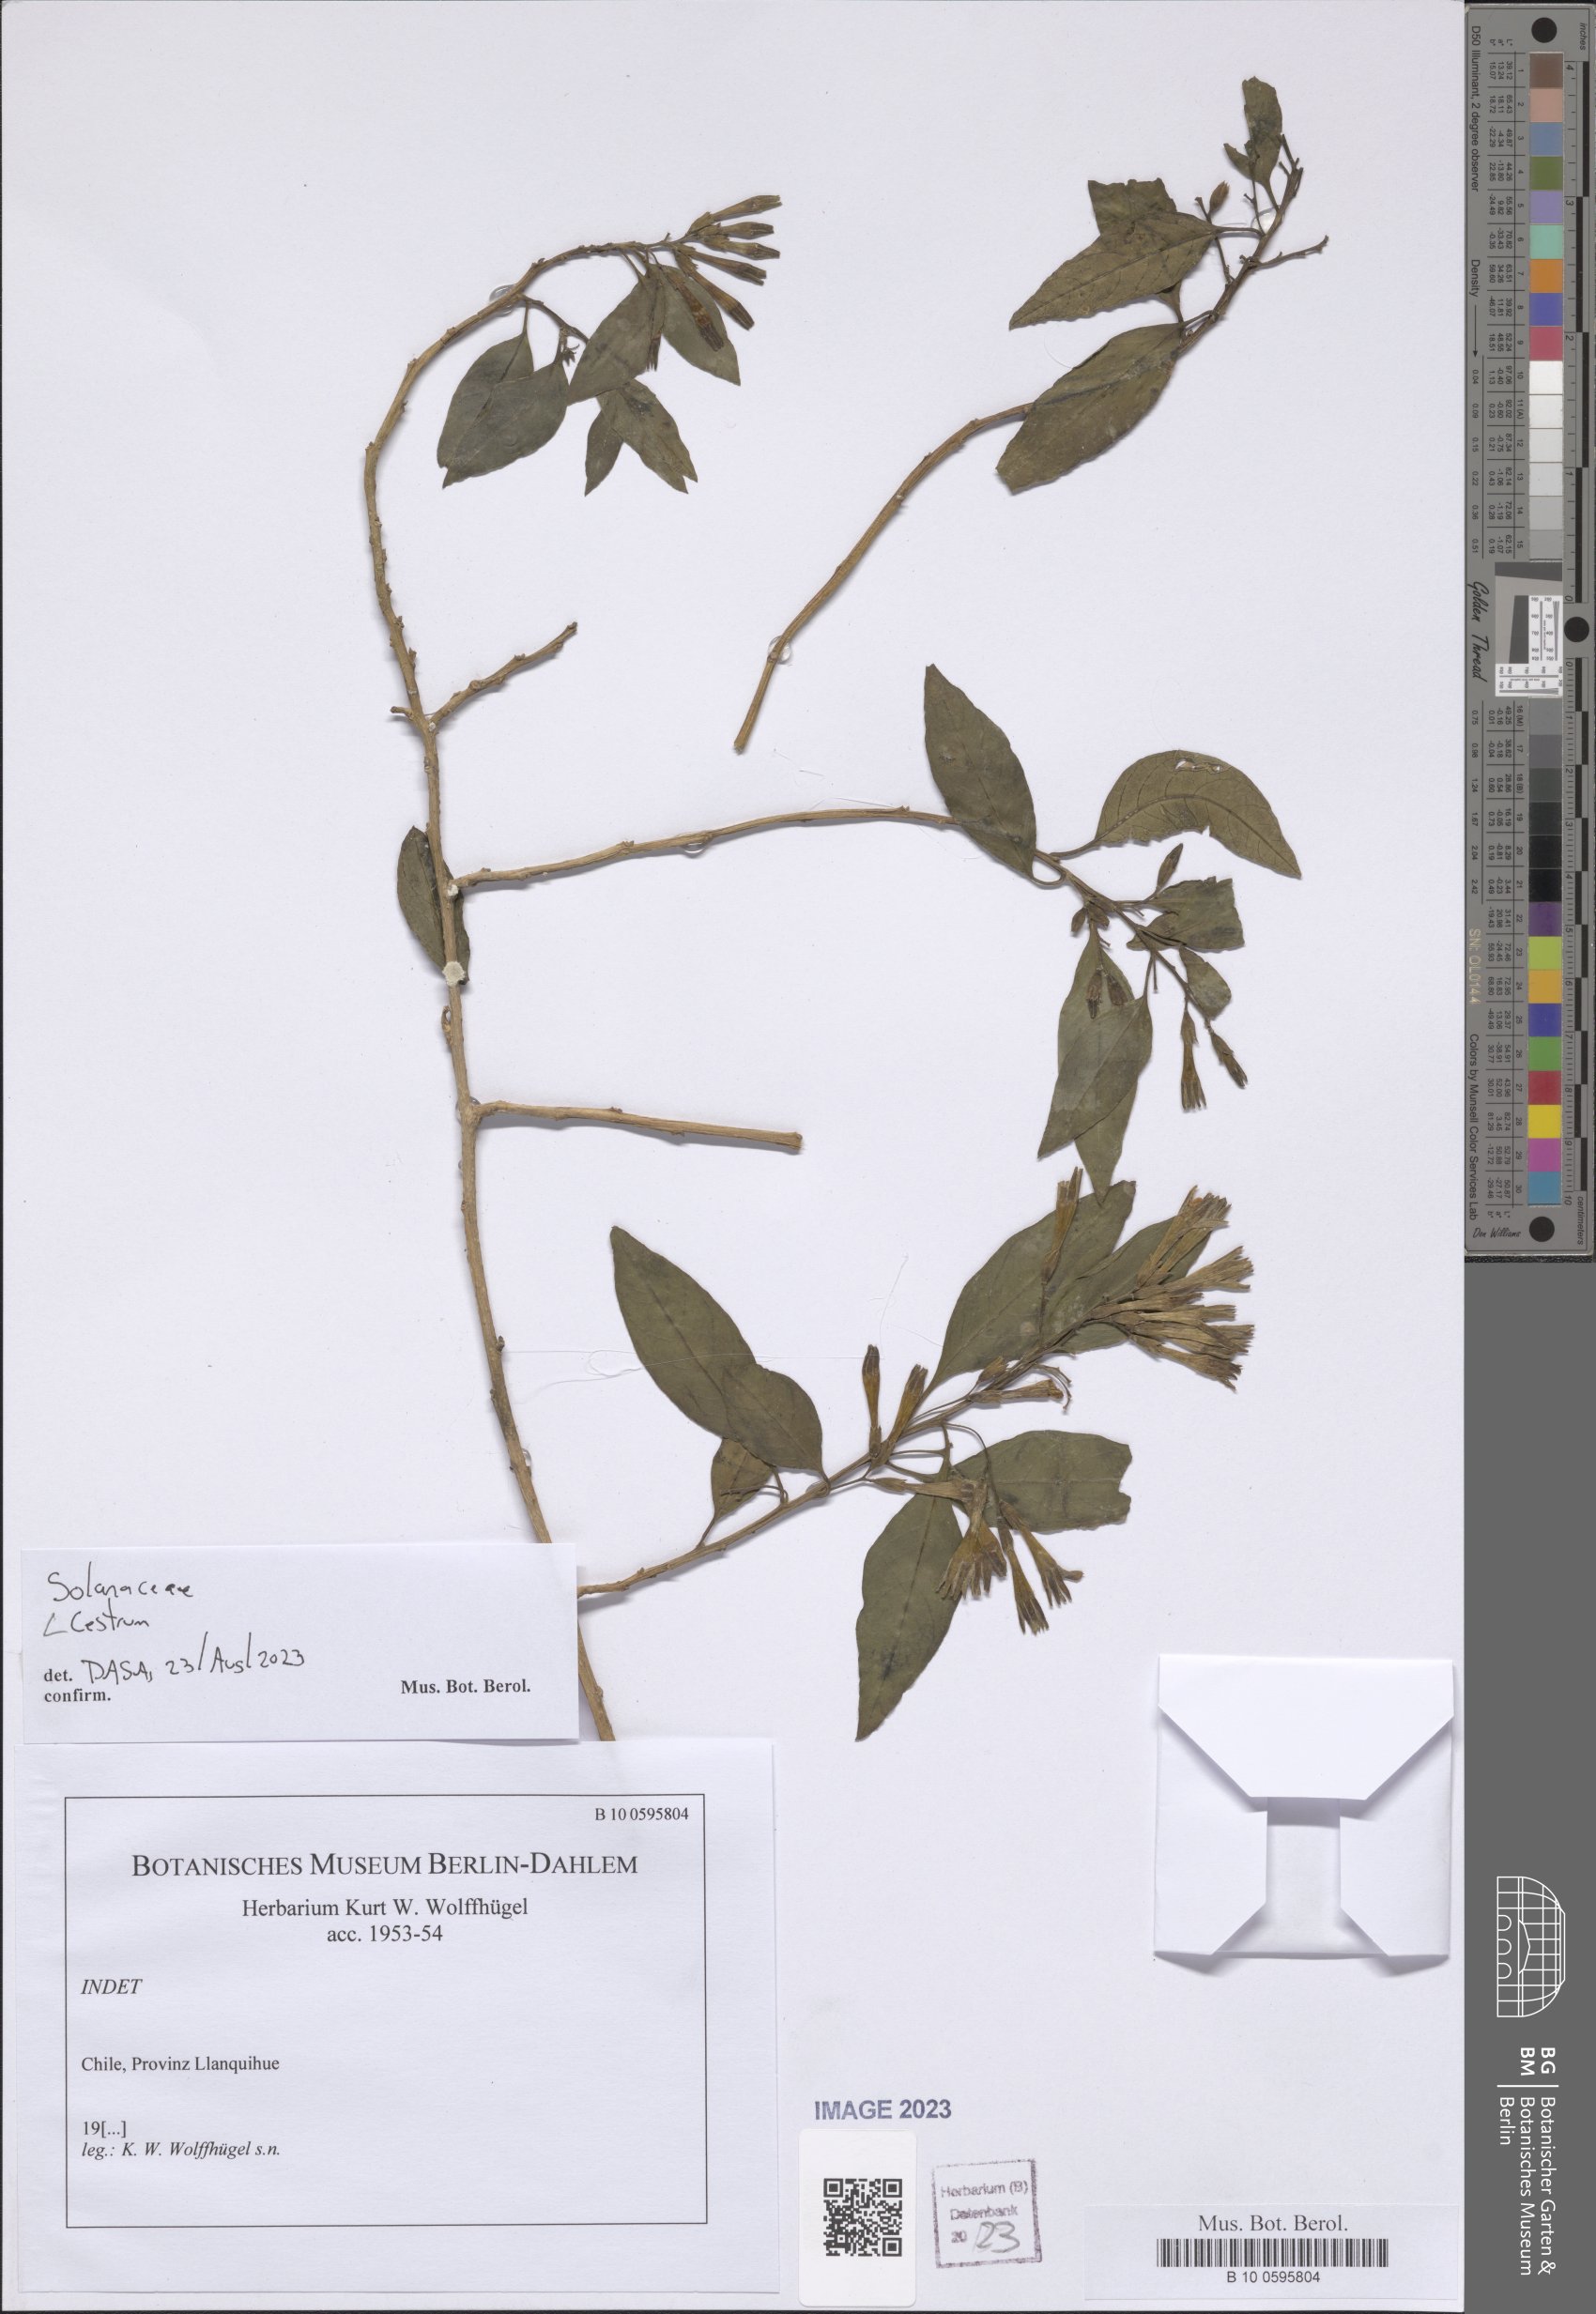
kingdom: Plantae
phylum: Tracheophyta
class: Magnoliopsida
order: Solanales
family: Solanaceae
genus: Cestrum
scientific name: Cestrum
